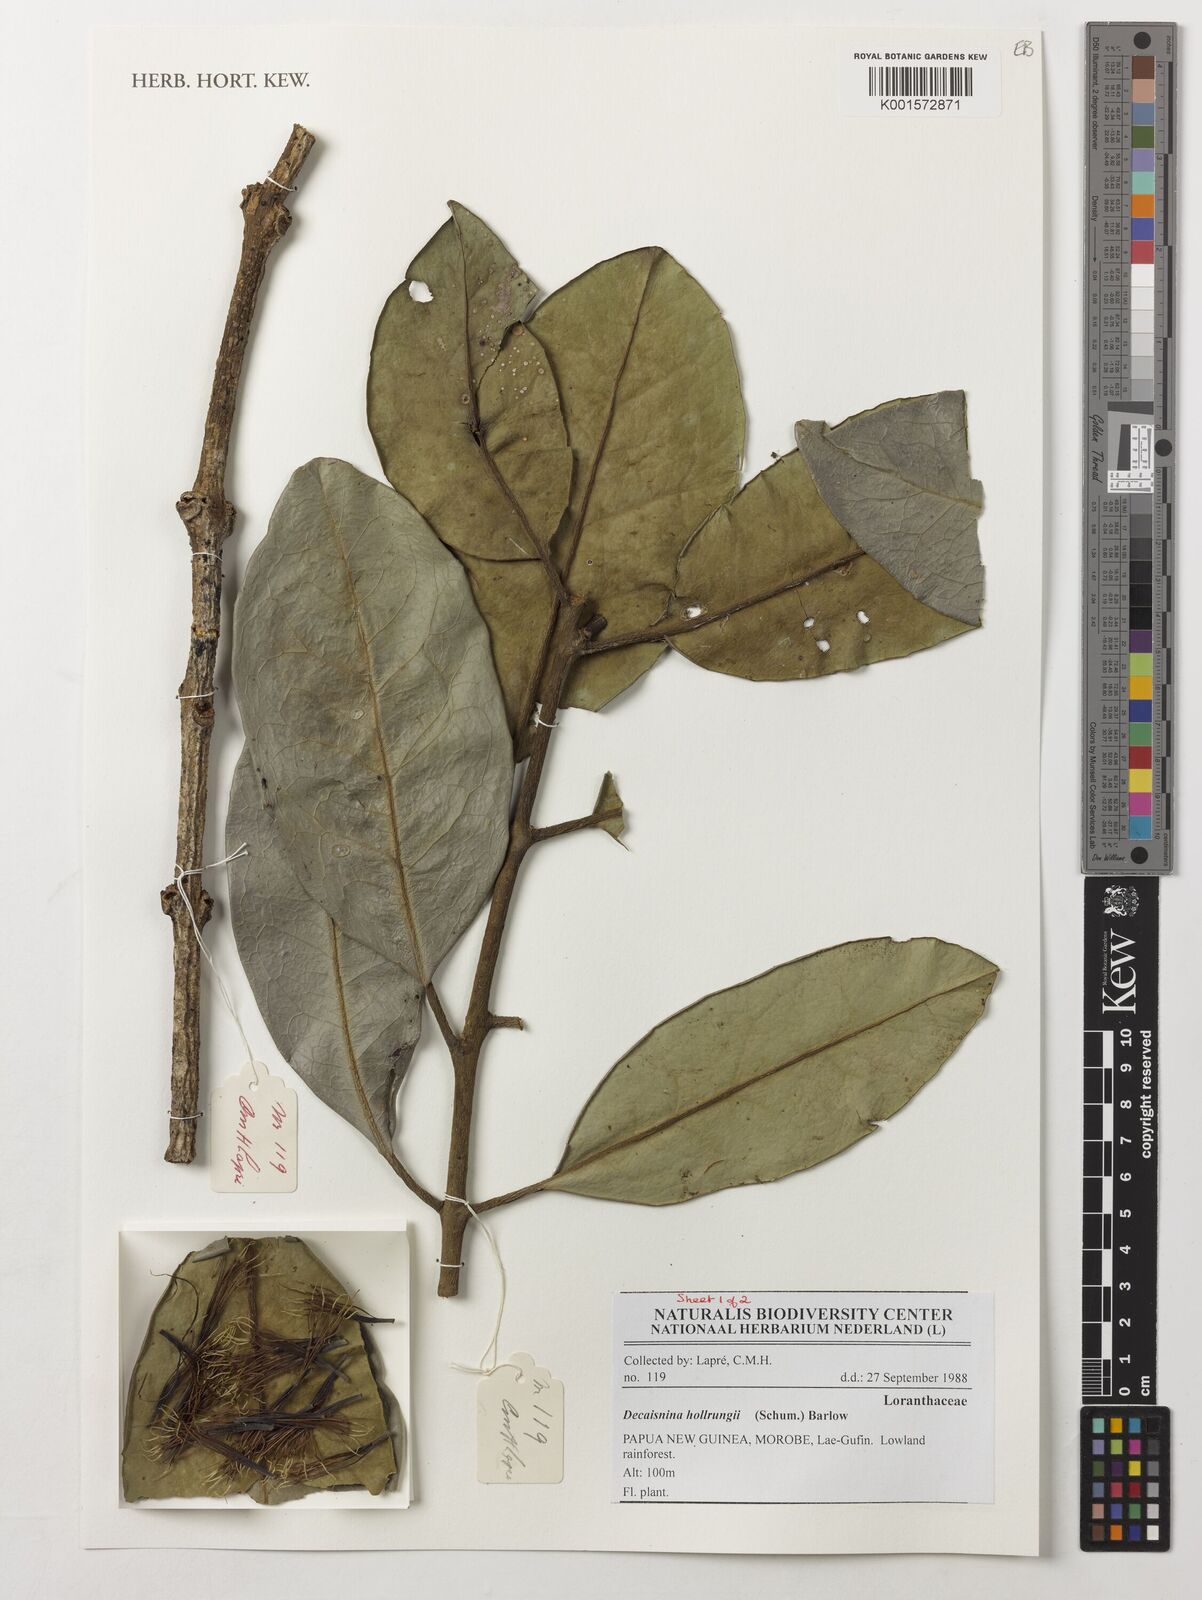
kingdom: Plantae
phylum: Tracheophyta
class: Magnoliopsida
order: Santalales
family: Loranthaceae
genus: Decaisnina
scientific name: Decaisnina hollrungii
